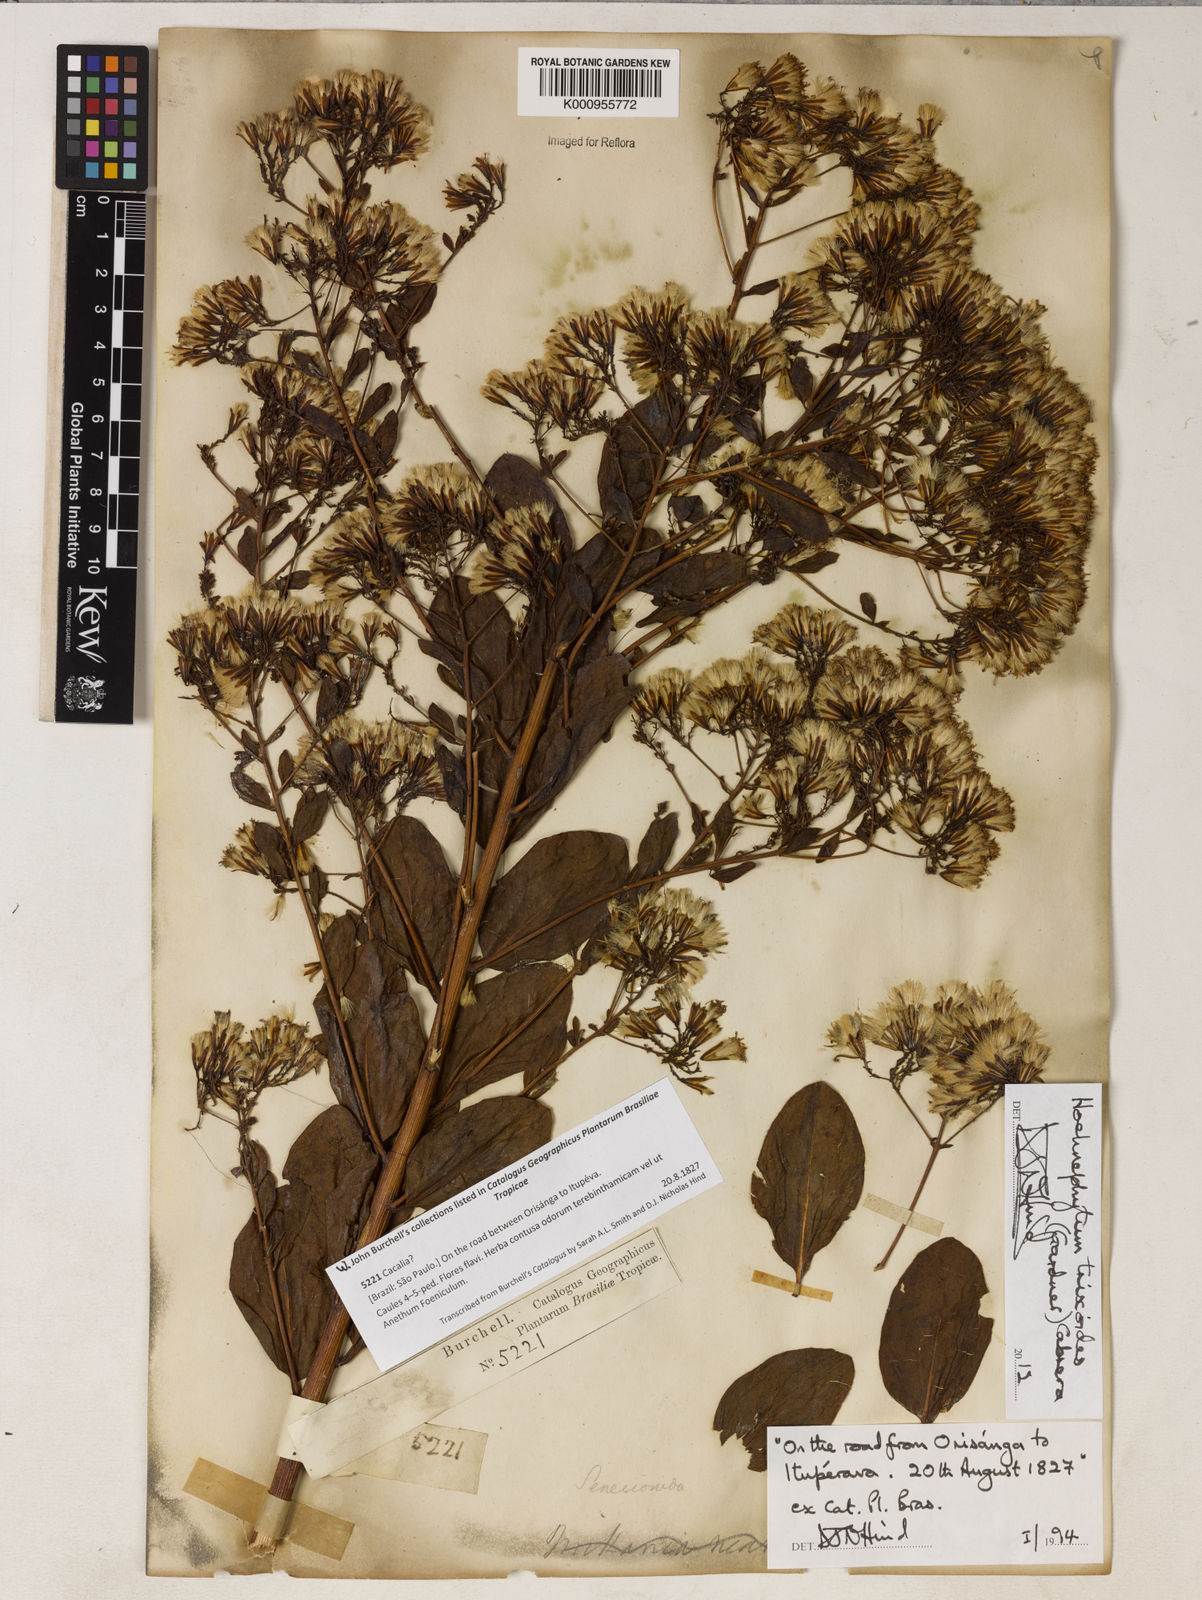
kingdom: Plantae
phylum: Tracheophyta
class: Magnoliopsida
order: Asterales
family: Asteraceae
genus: Hoehnephytum
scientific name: Hoehnephytum trixoides
